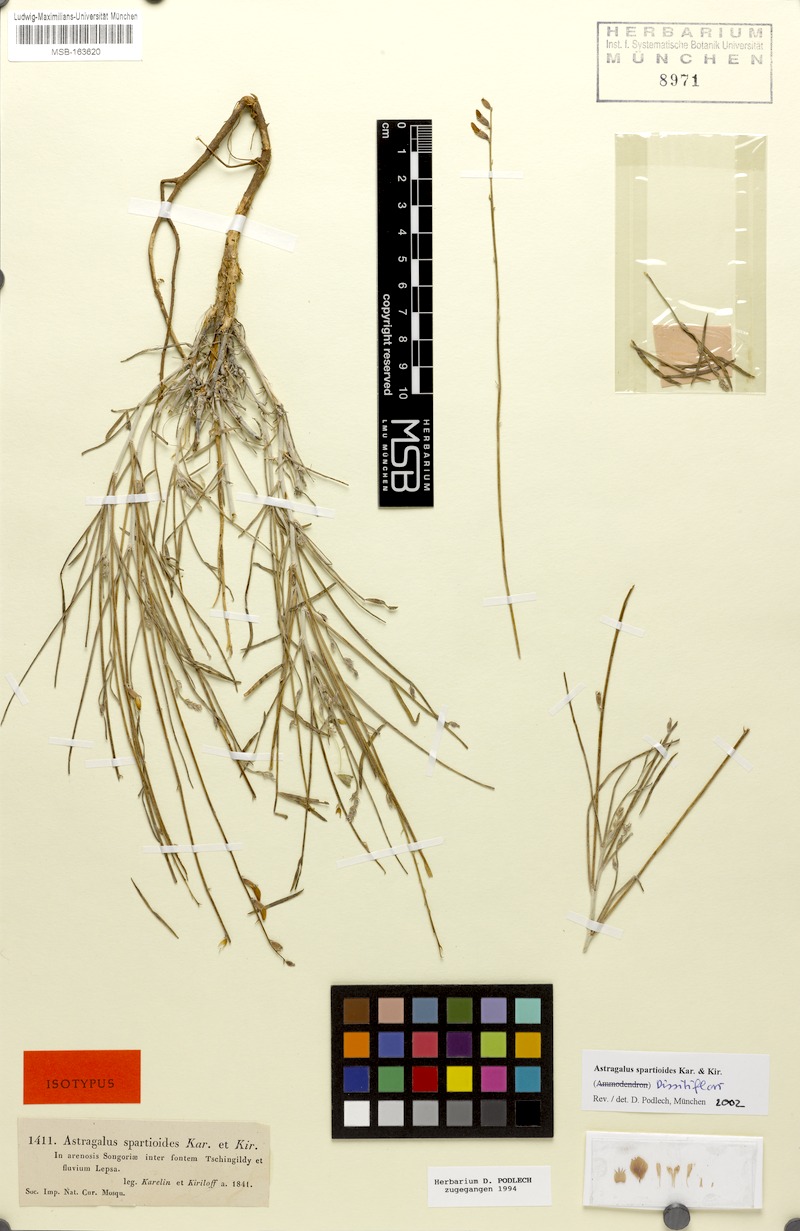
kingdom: Plantae
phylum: Tracheophyta
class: Magnoliopsida
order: Fabales
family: Fabaceae
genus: Astragalus
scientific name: Astragalus spartioides
